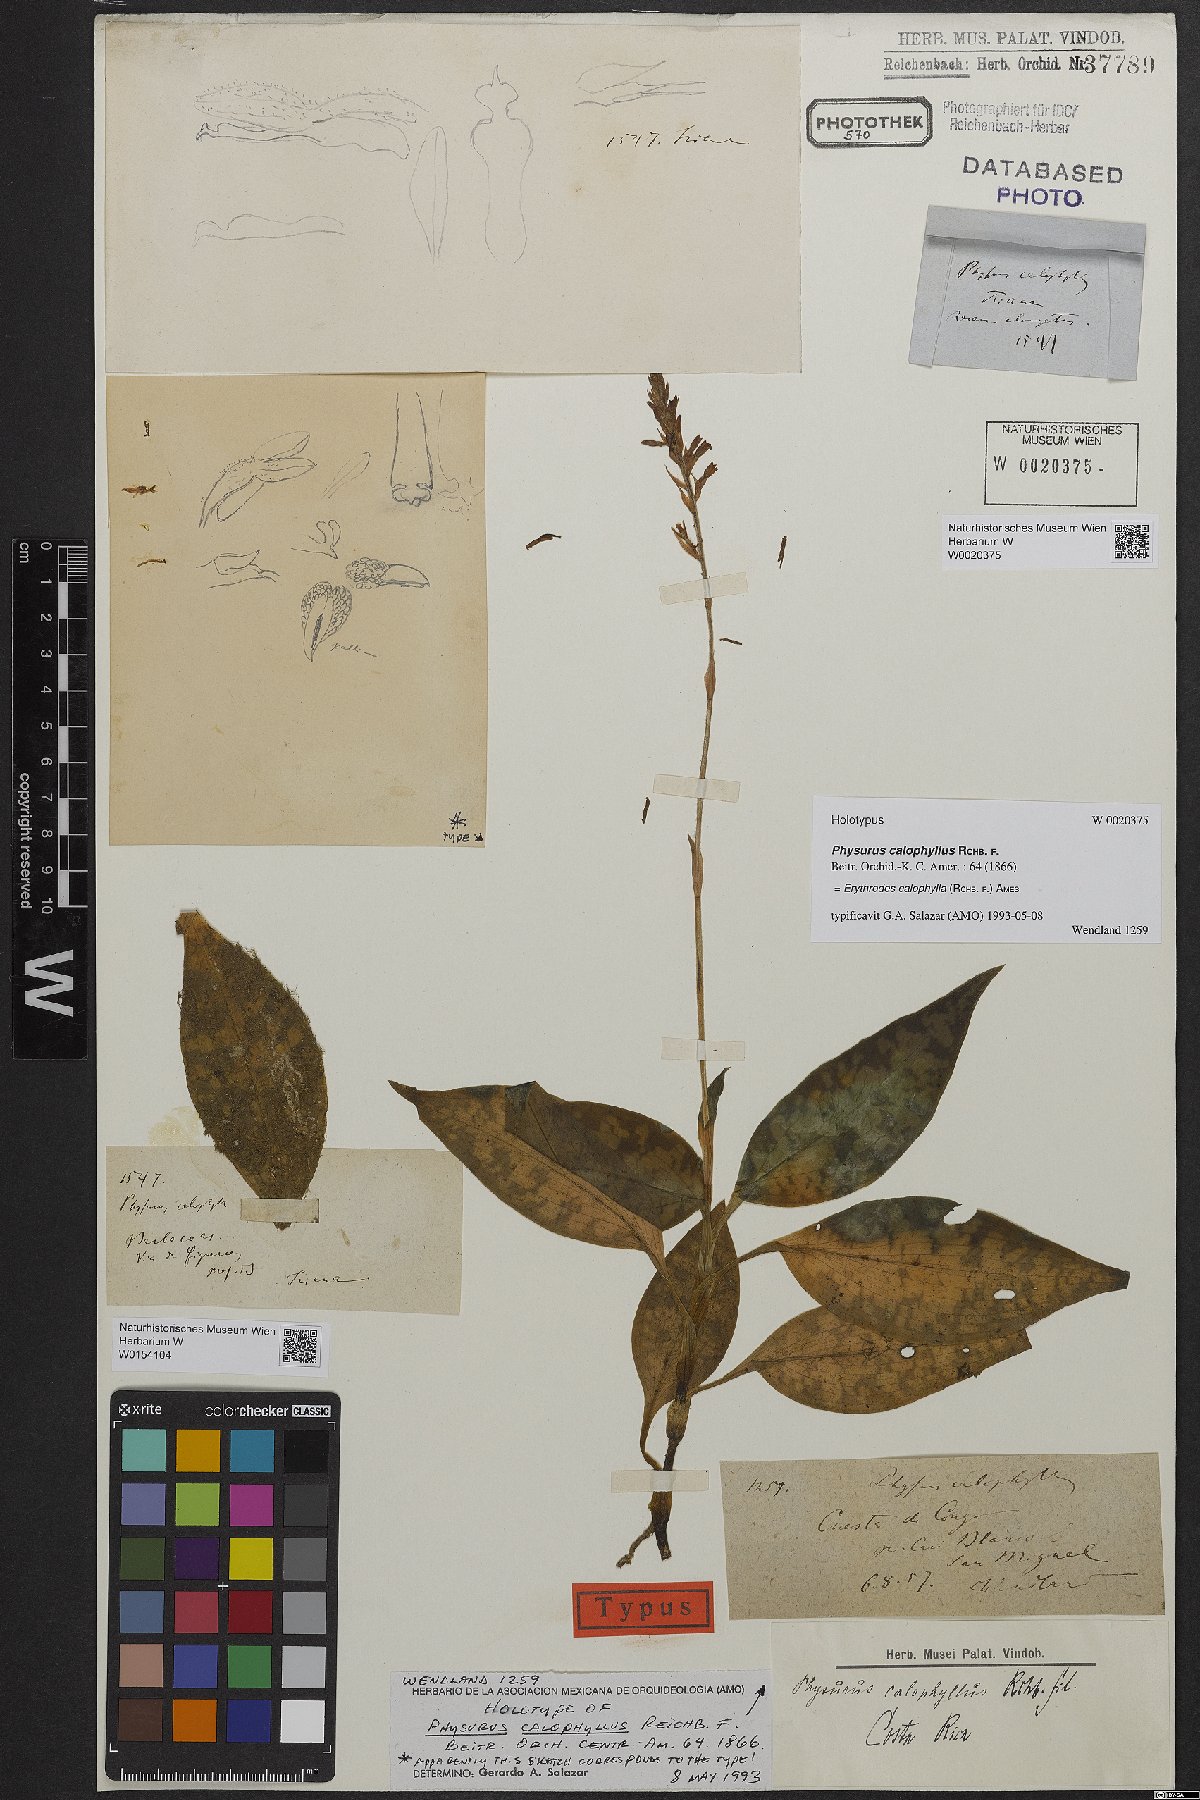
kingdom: Plantae
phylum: Tracheophyta
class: Liliopsida
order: Asparagales
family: Orchidaceae
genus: Microchilus
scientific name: Microchilus calophyllus
